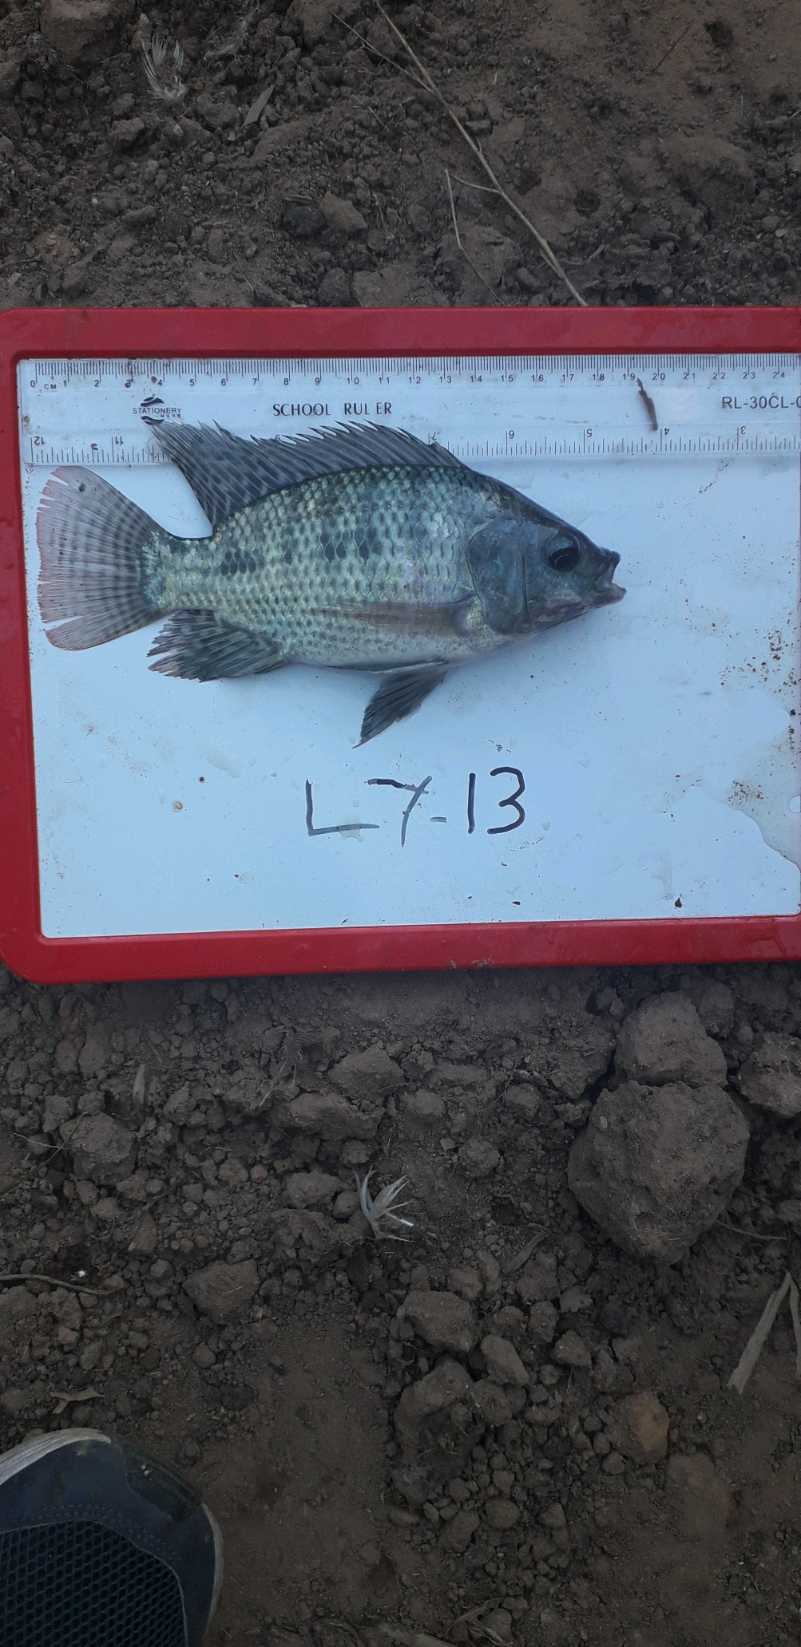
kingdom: Animalia
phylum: Chordata
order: Perciformes
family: Cichlidae
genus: Oreochromis
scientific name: Oreochromis niloticus
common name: Nile tilapia
